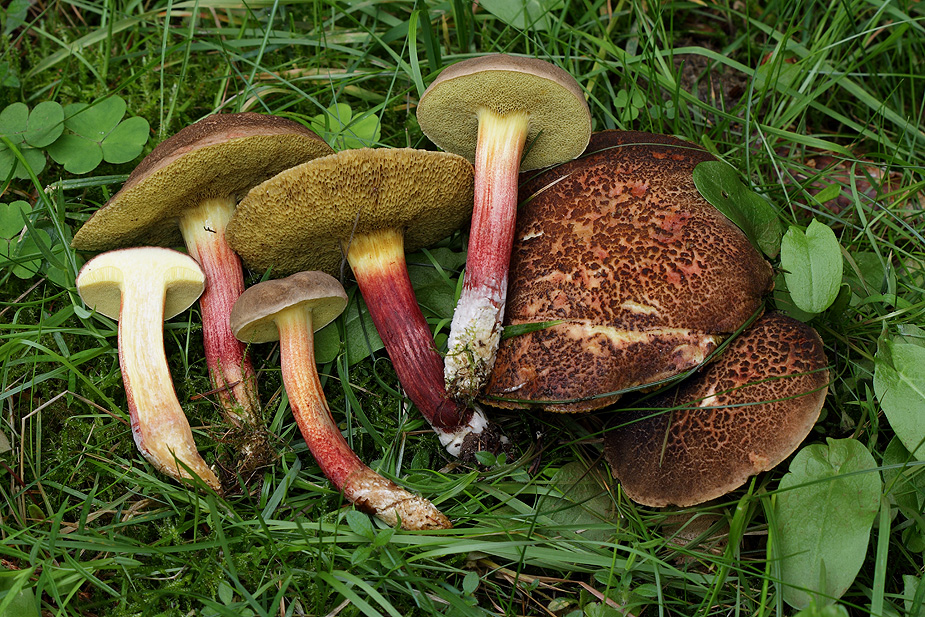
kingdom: Fungi
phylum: Basidiomycota
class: Agaricomycetes
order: Boletales
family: Boletaceae
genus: Xerocomellus
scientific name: Xerocomellus chrysenteron
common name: rødsprukken rørhat
